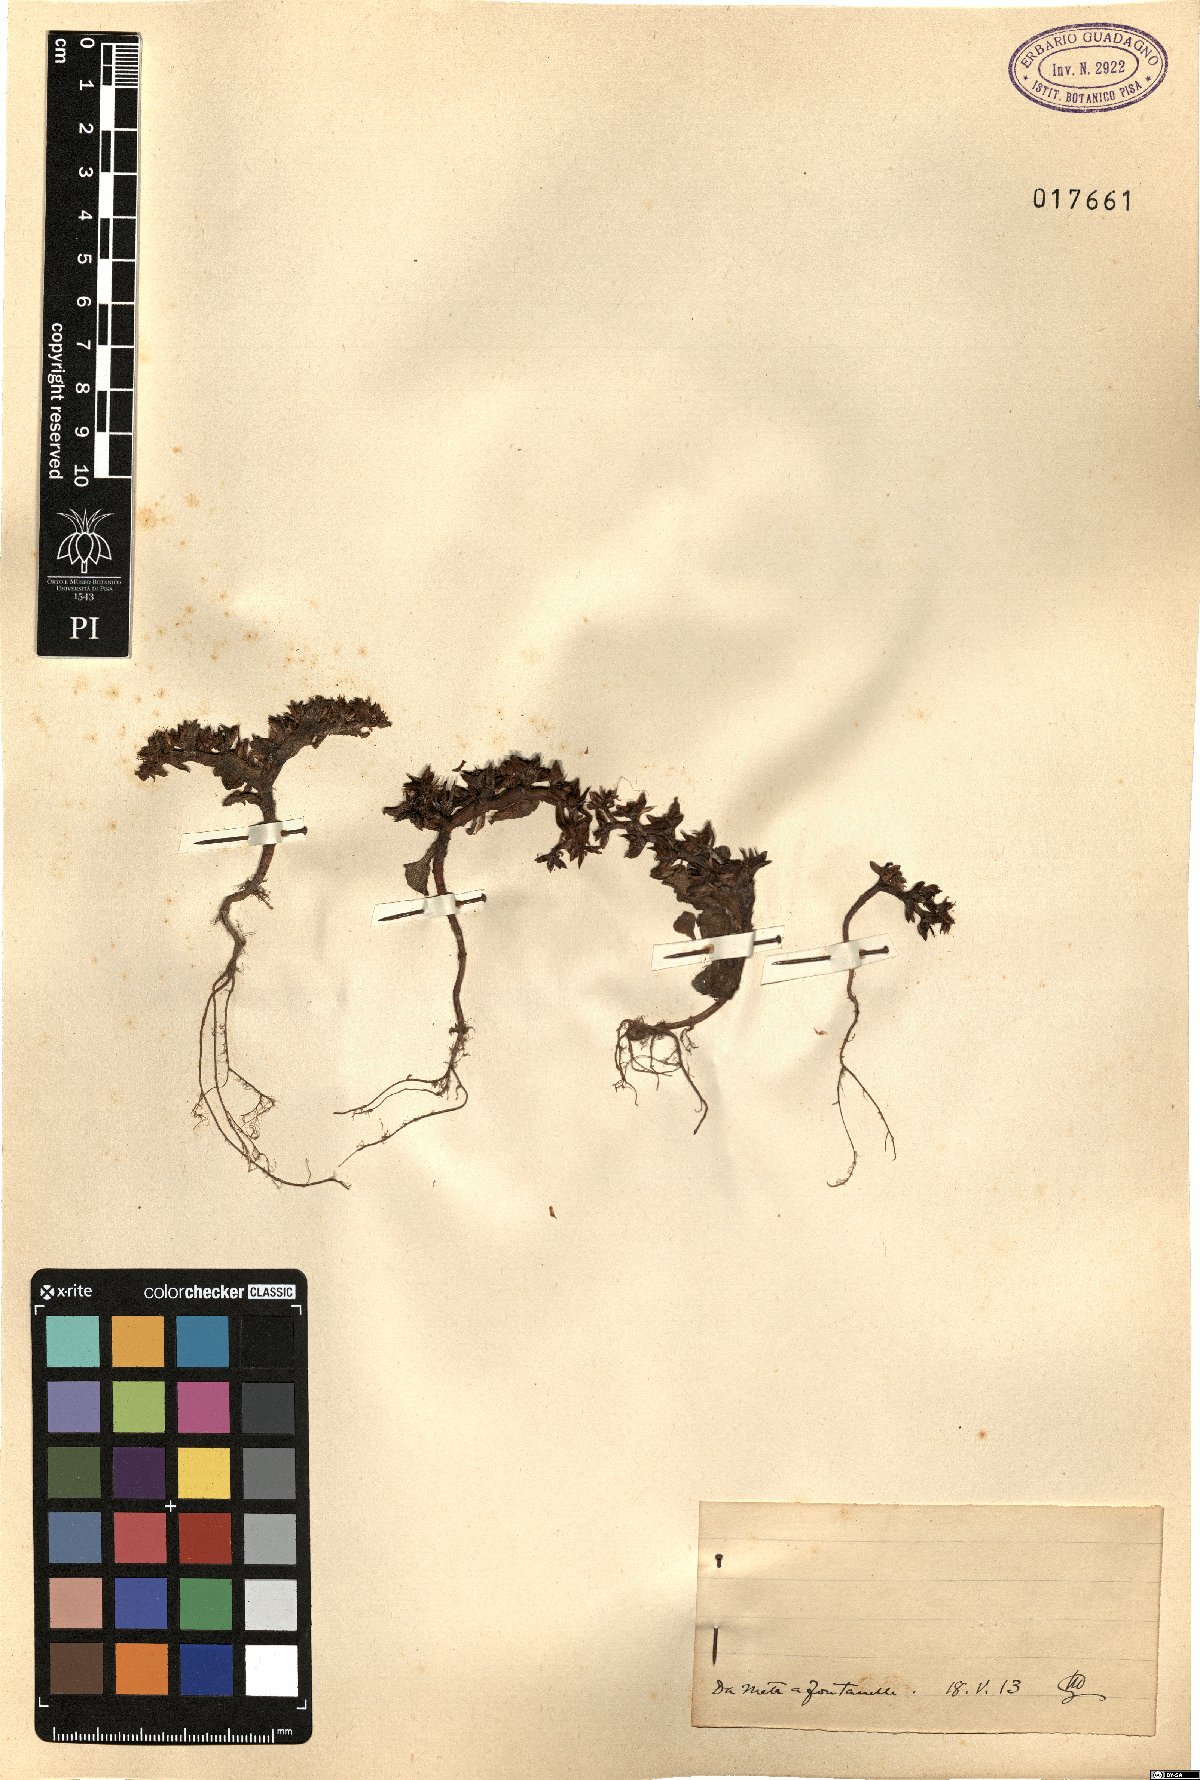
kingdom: Plantae
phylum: Tracheophyta
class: Magnoliopsida
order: Saxifragales
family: Crassulaceae
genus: Sedum
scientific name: Sedum
